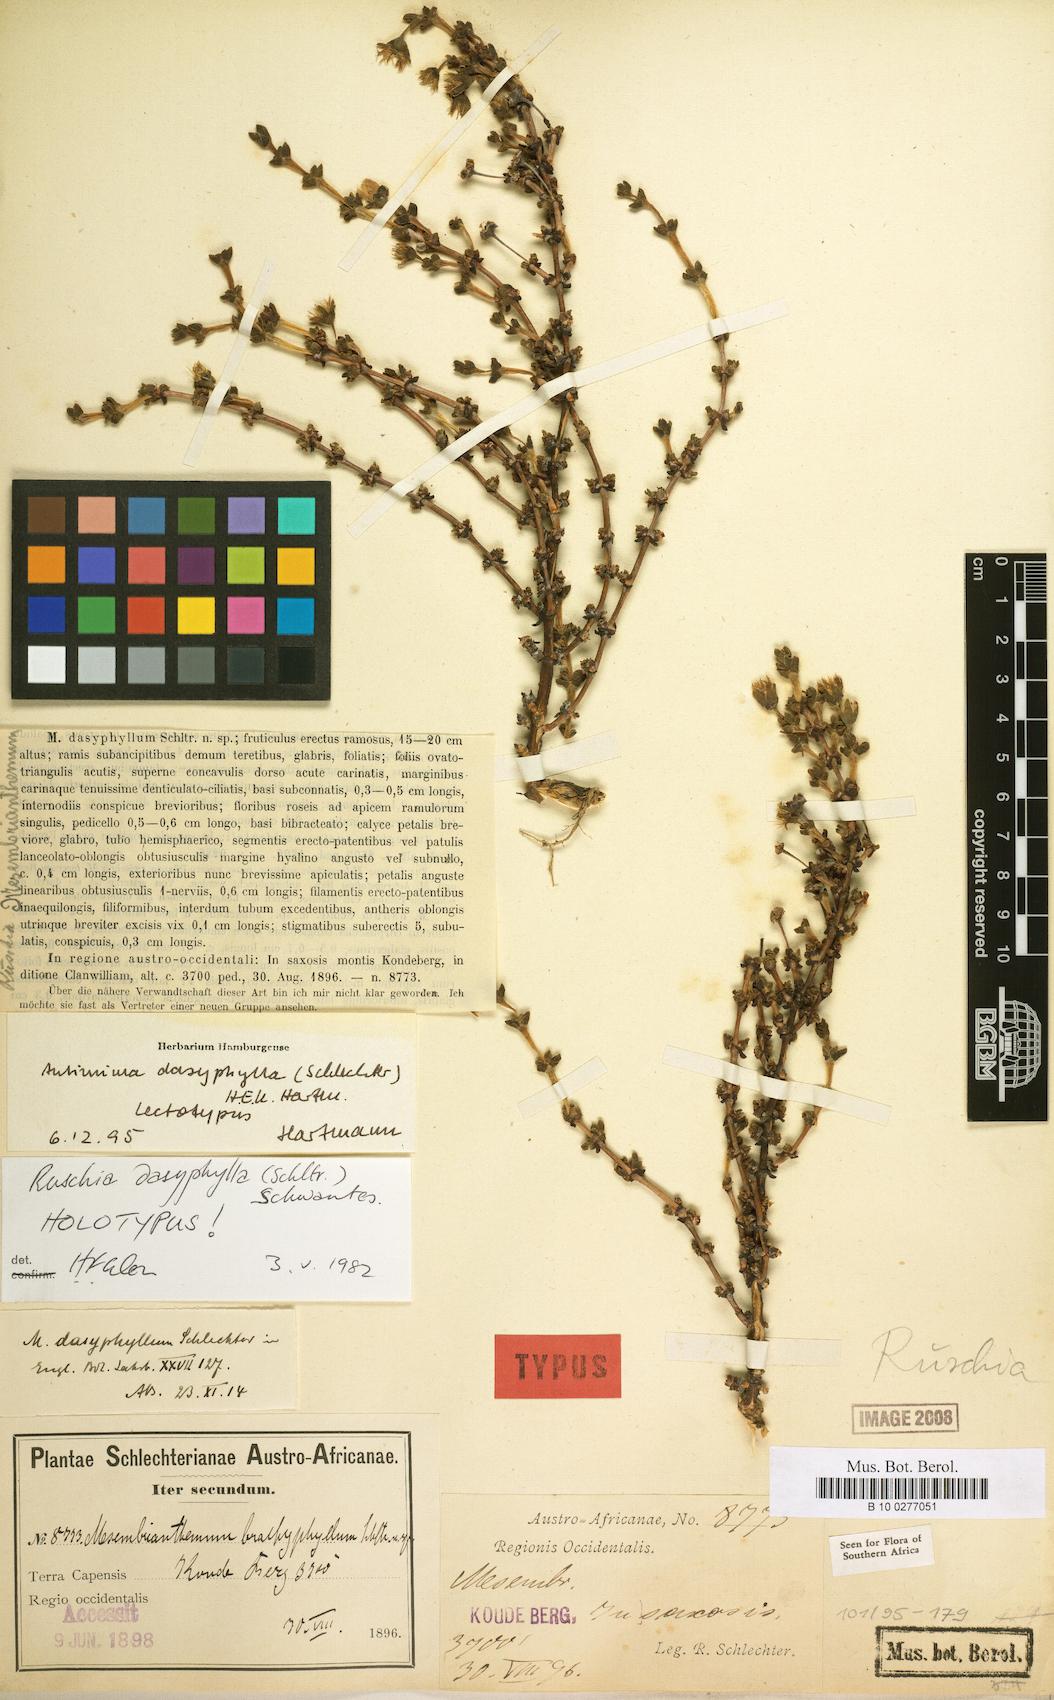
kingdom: Plantae
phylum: Tracheophyta
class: Magnoliopsida
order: Caryophyllales
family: Aizoaceae
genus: Antimima
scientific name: Antimima dasyphylla
